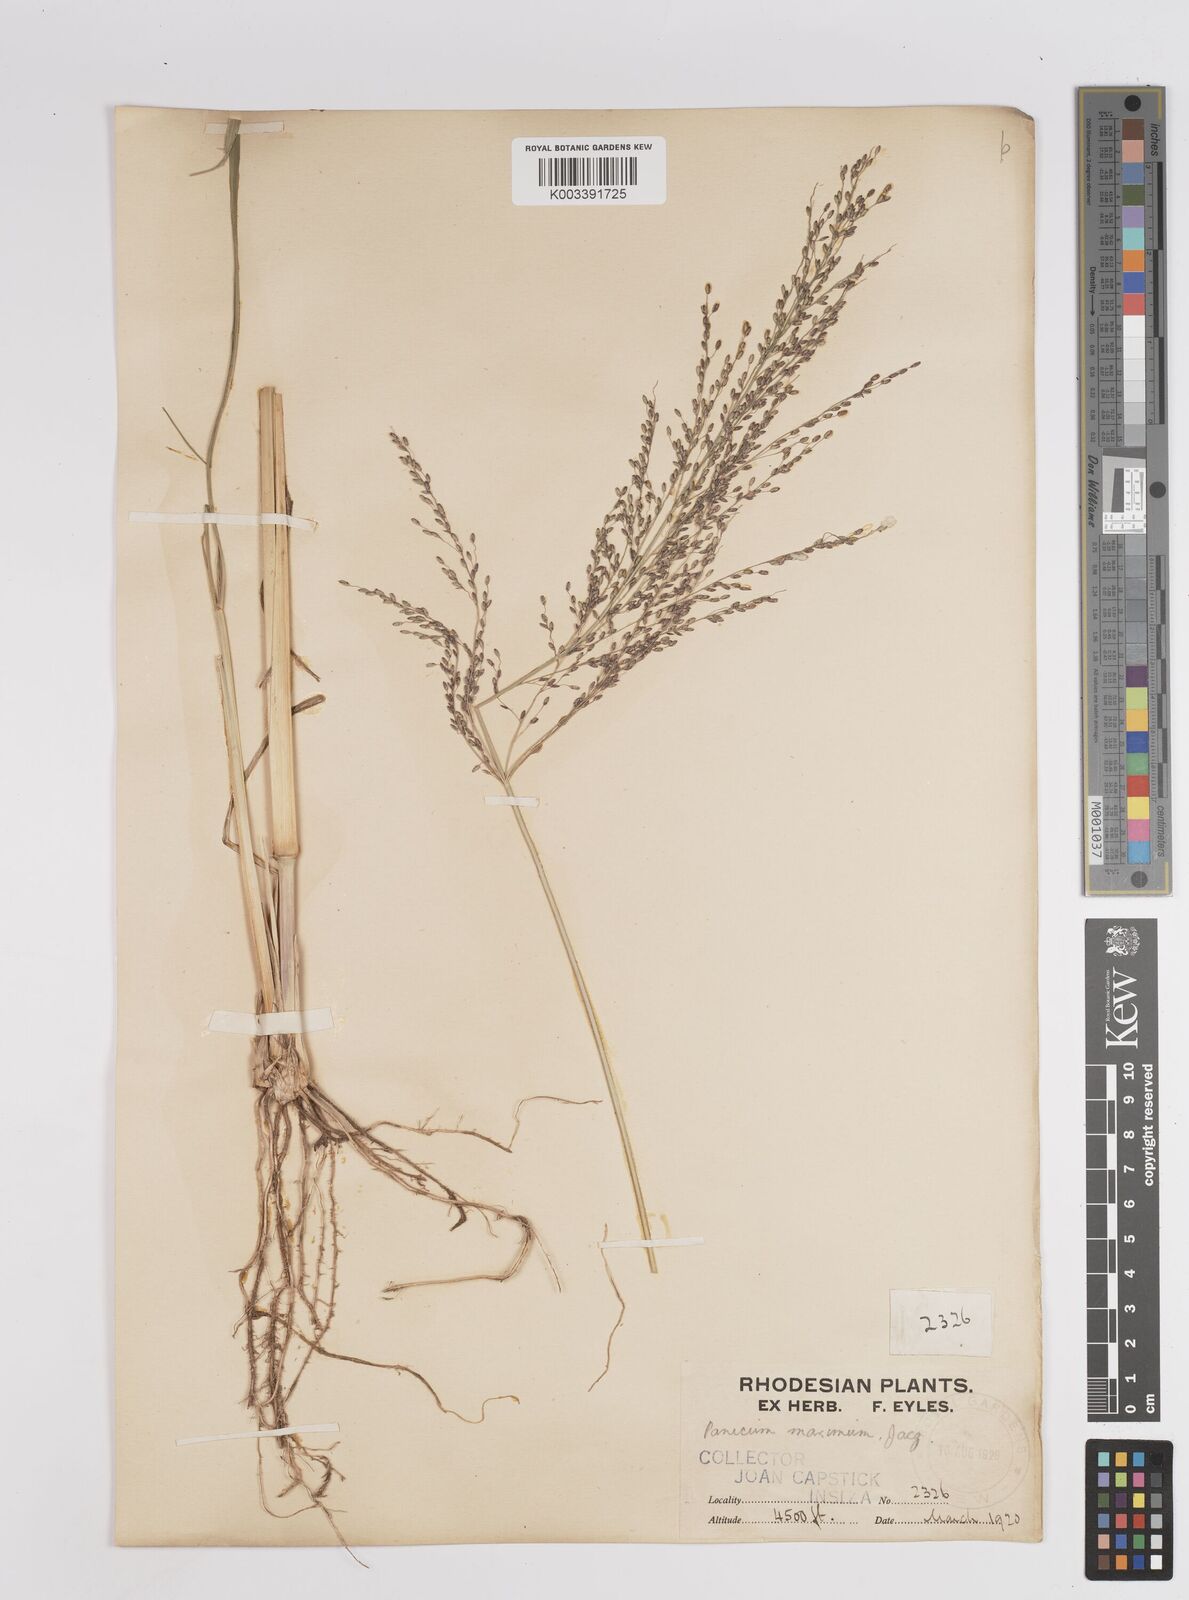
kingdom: Plantae
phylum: Tracheophyta
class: Liliopsida
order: Poales
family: Poaceae
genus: Megathyrsus
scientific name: Megathyrsus maximus
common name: Guineagrass
